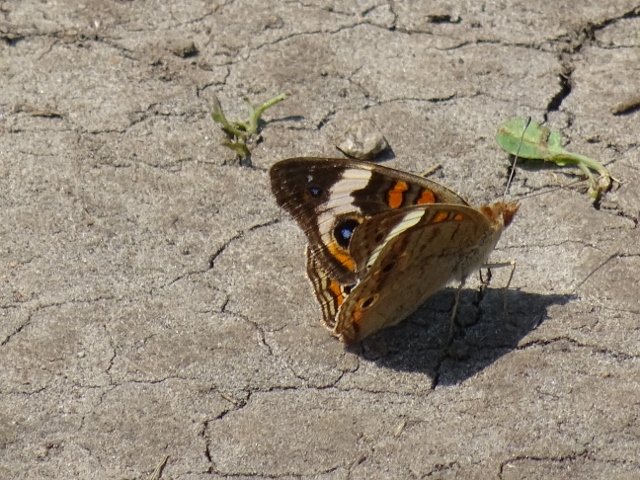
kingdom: Animalia
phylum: Arthropoda
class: Insecta
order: Lepidoptera
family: Nymphalidae
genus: Junonia
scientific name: Junonia coenia
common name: Common Buckeye
